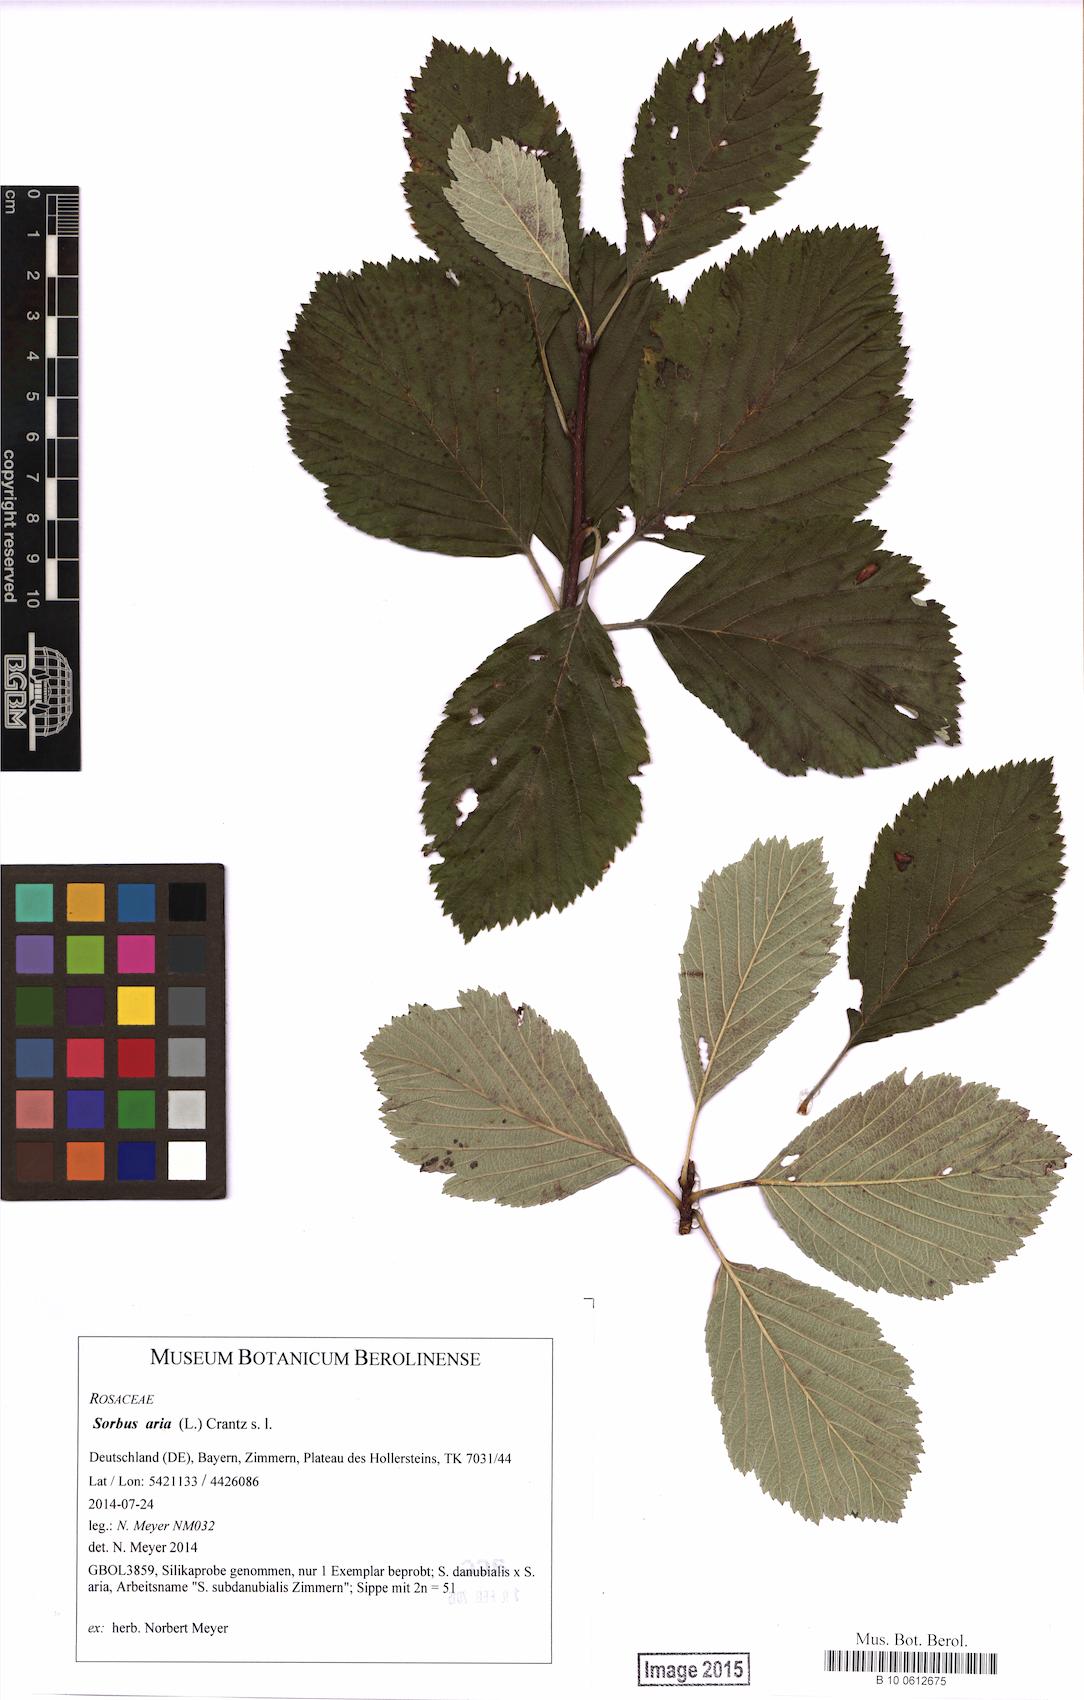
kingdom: Plantae
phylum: Tracheophyta
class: Magnoliopsida
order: Rosales
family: Rosaceae
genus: Aria
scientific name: Aria edulis
